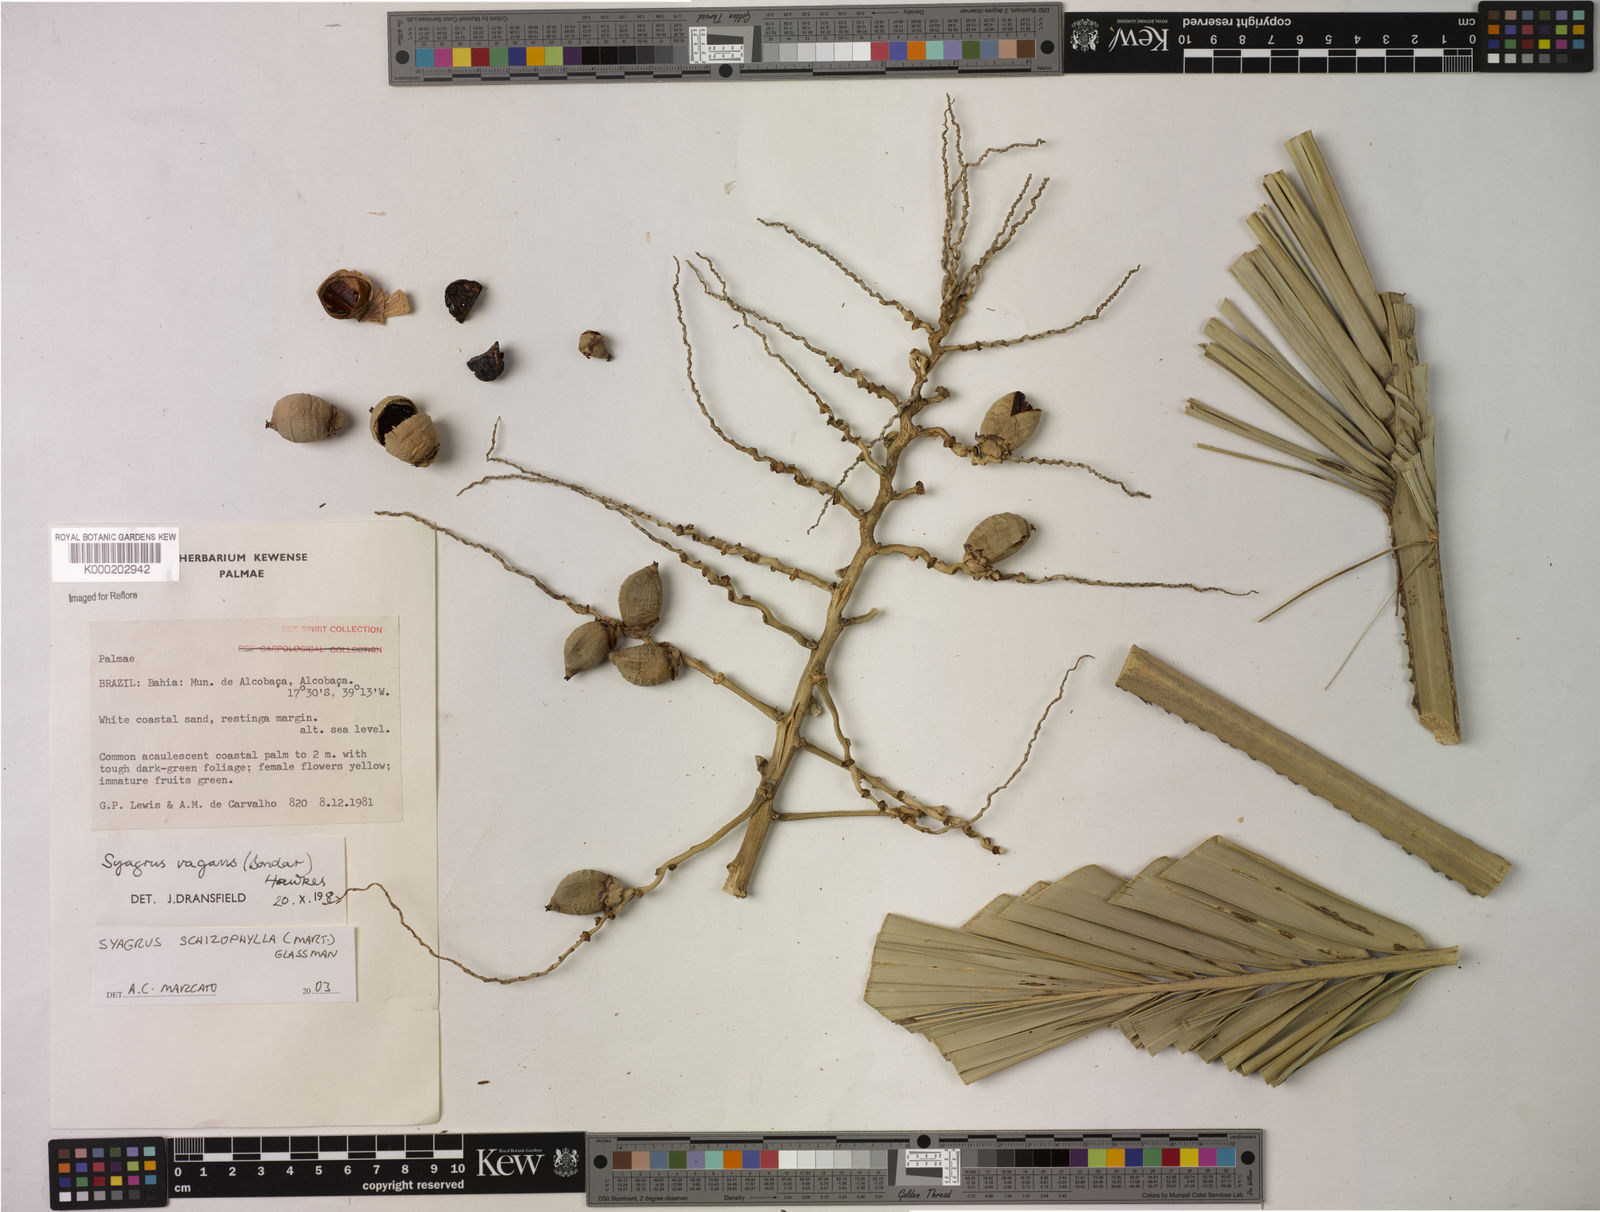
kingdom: Plantae
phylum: Tracheophyta
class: Liliopsida
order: Arecales
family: Arecaceae
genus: Syagrus
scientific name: Syagrus schizophylla
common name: Arikury palm
